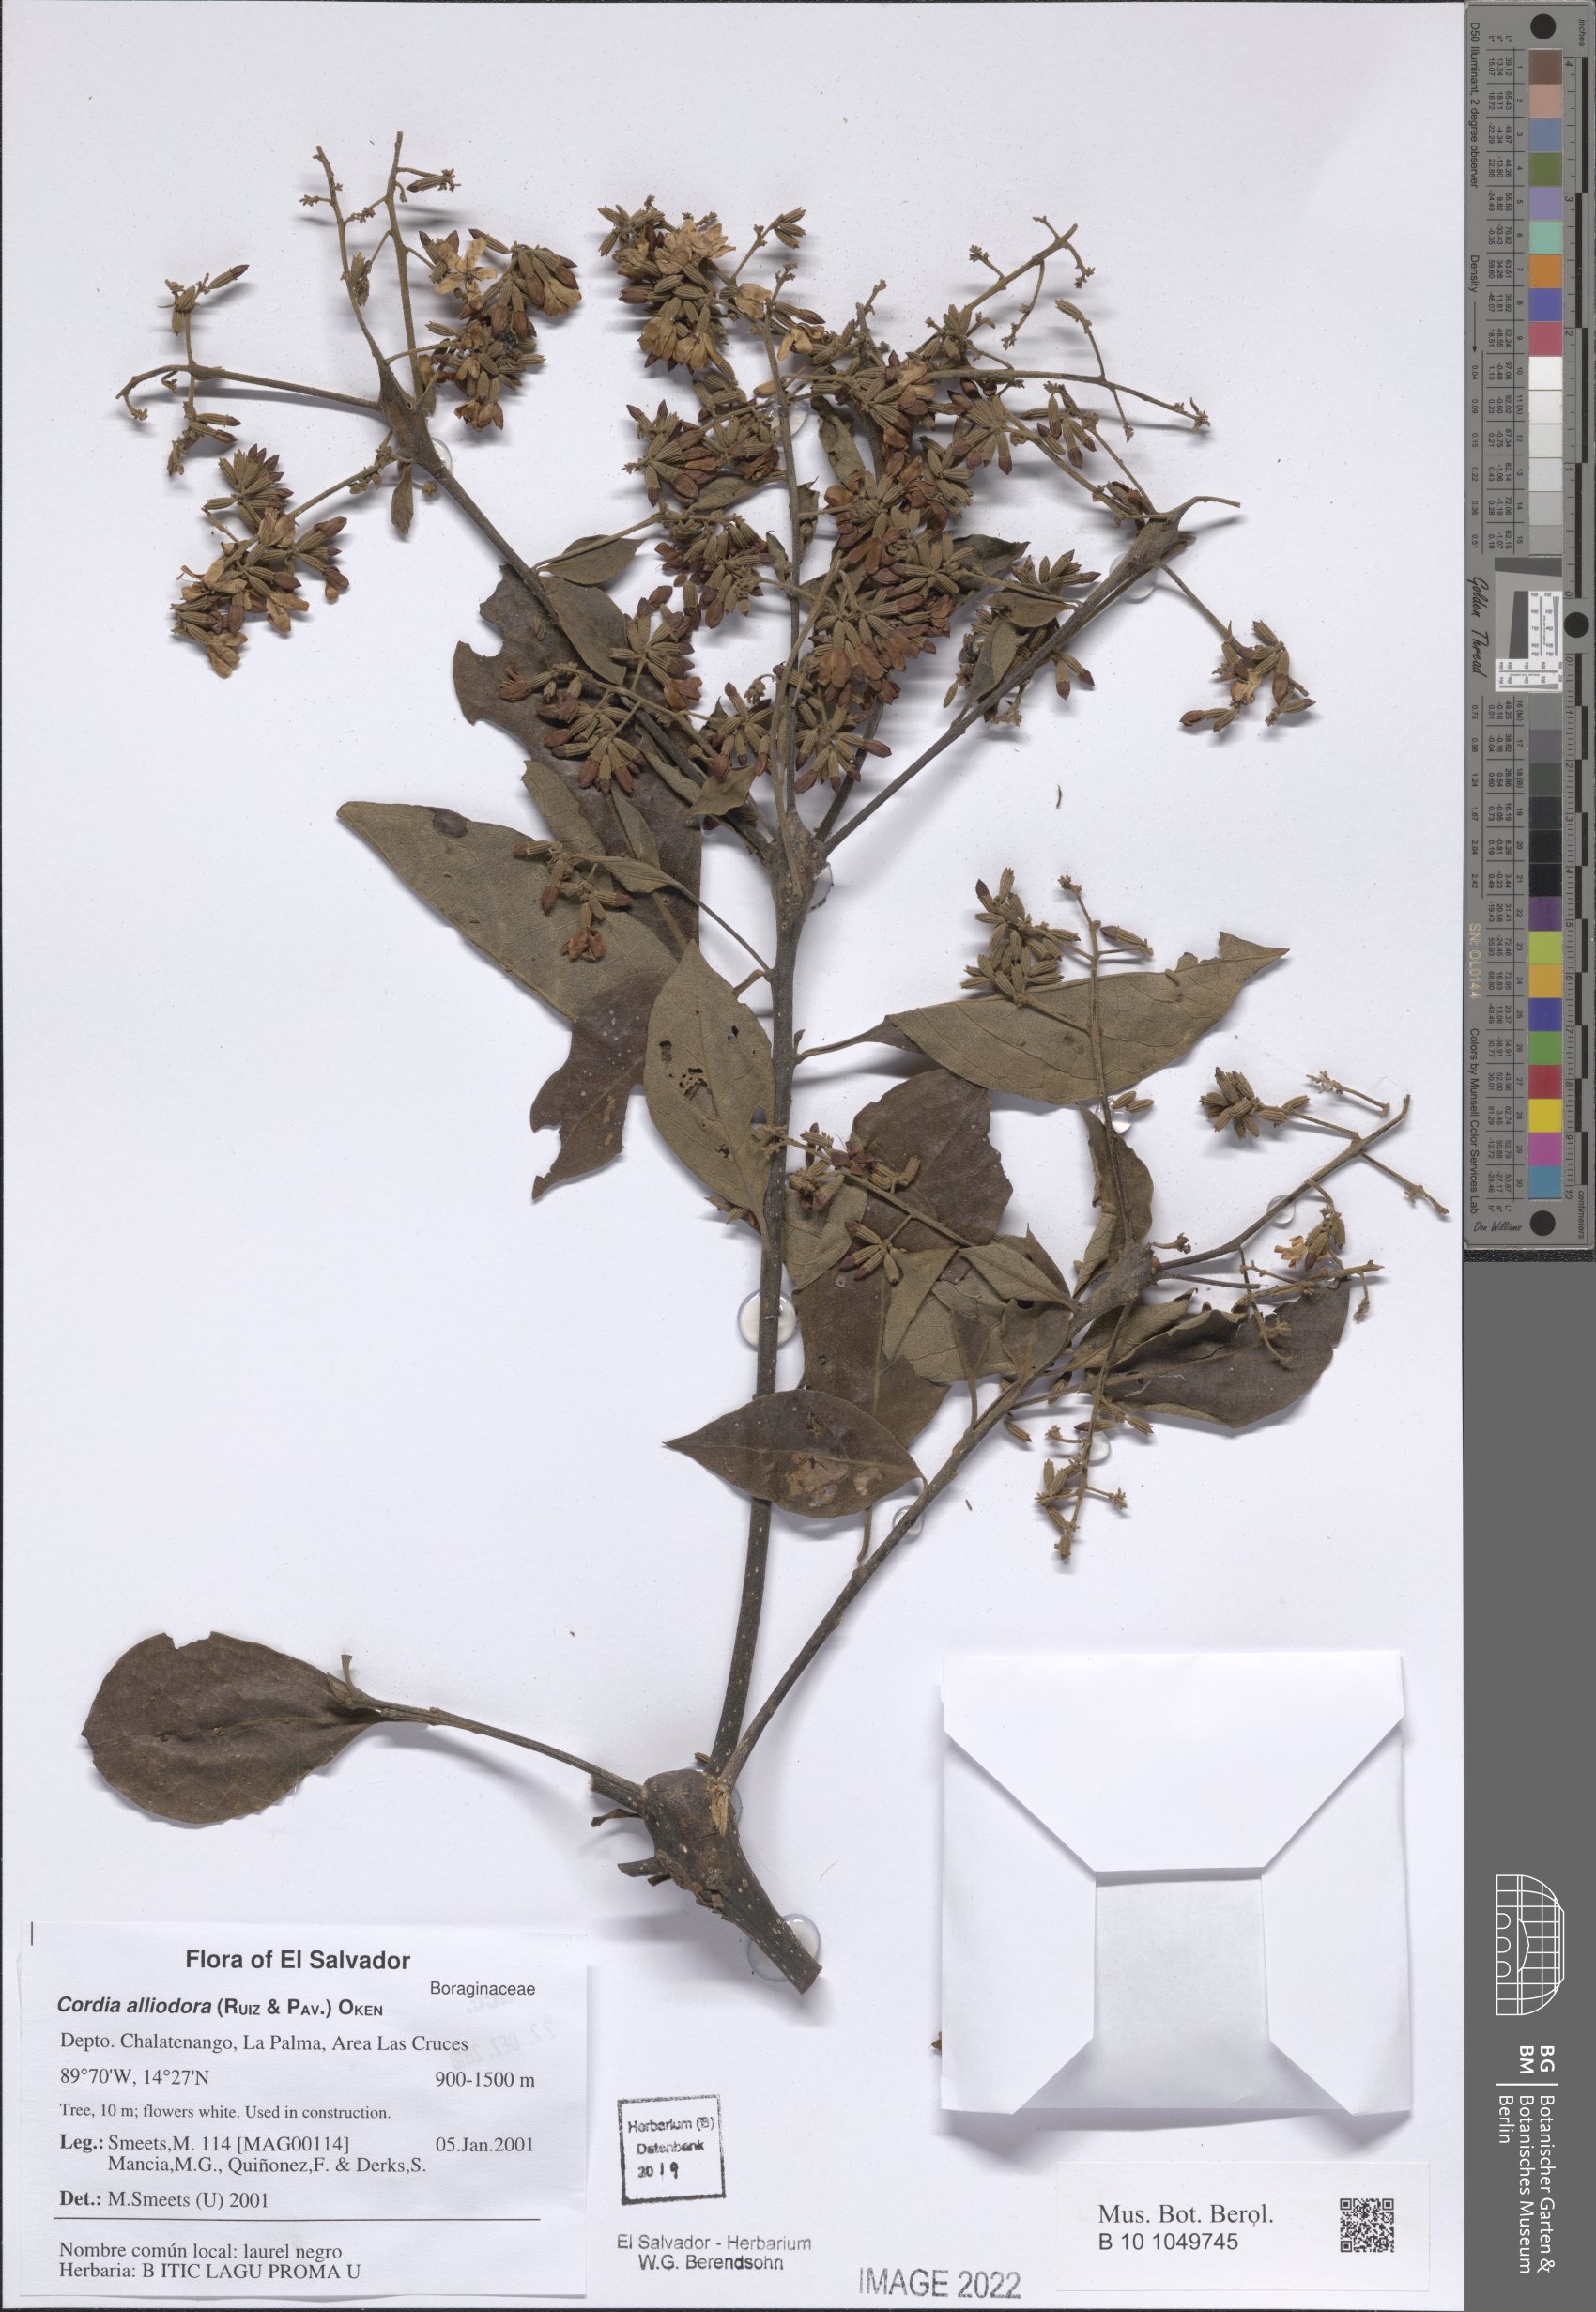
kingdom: Plantae
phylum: Tracheophyta
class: Magnoliopsida
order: Boraginales
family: Cordiaceae
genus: Cordia
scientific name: Cordia alliodora
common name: Spanish elm
